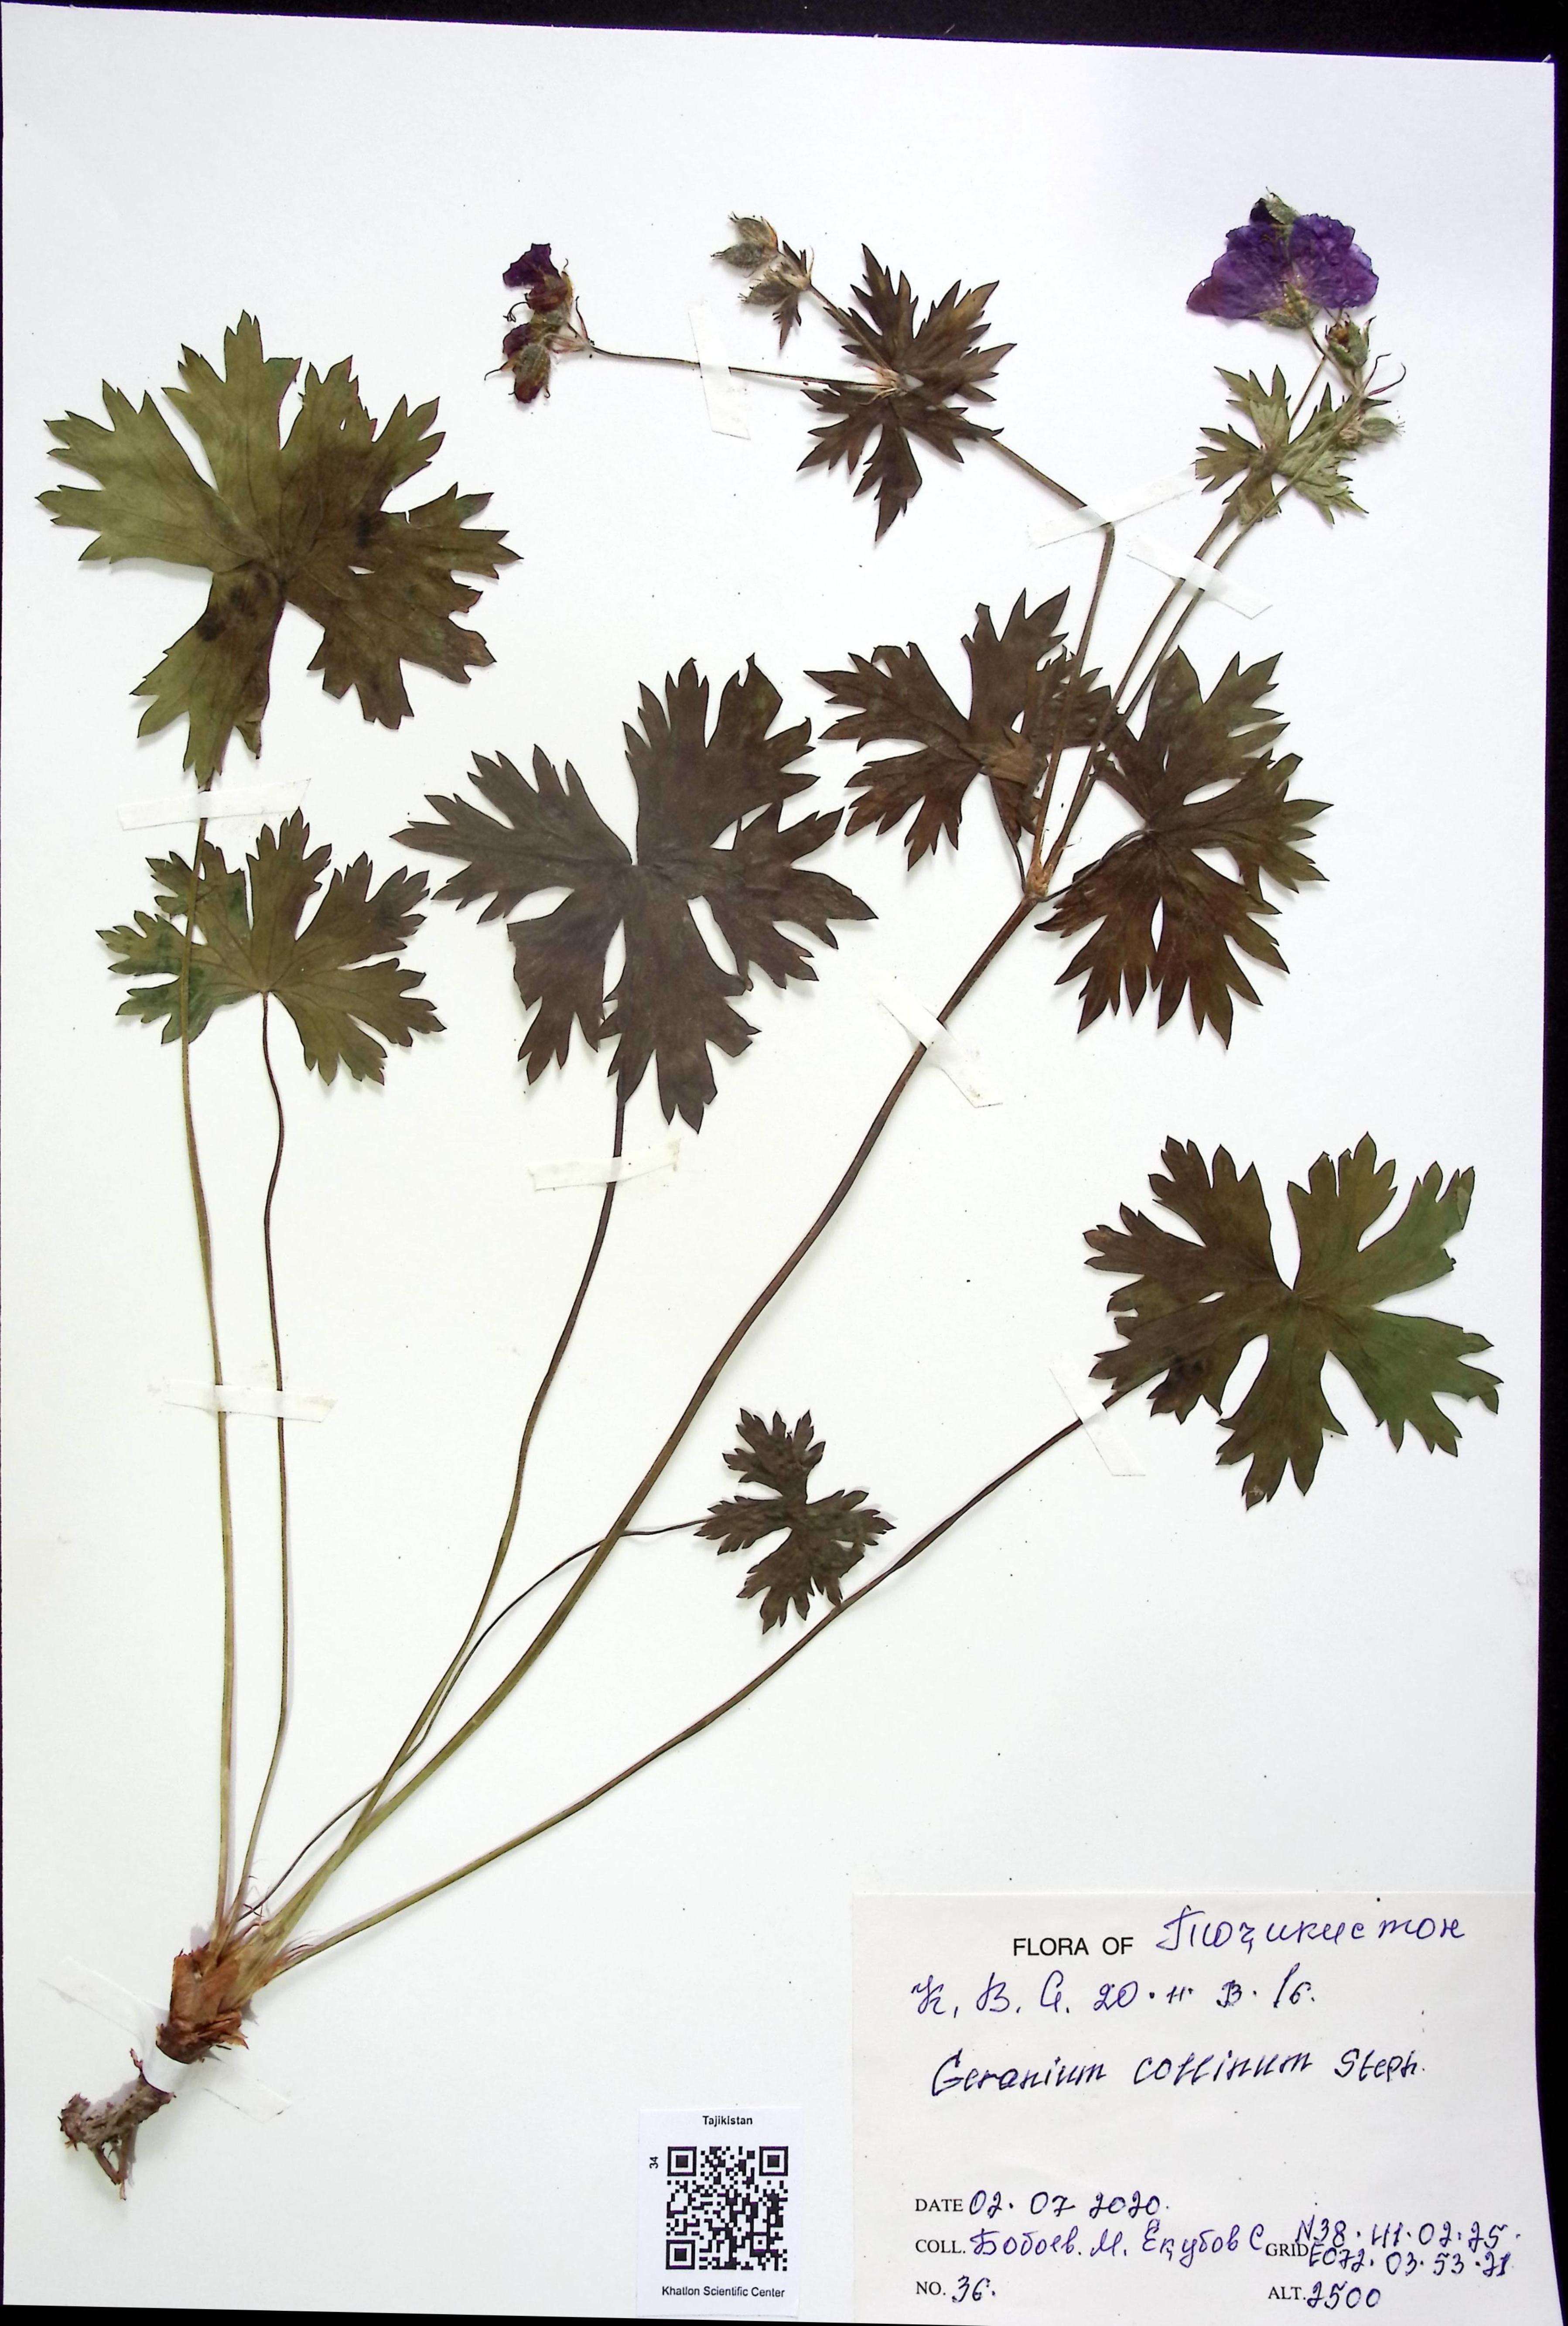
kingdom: Plantae
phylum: Tracheophyta
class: Magnoliopsida
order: Geraniales
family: Geraniaceae
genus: Geranium
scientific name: Geranium collinum
